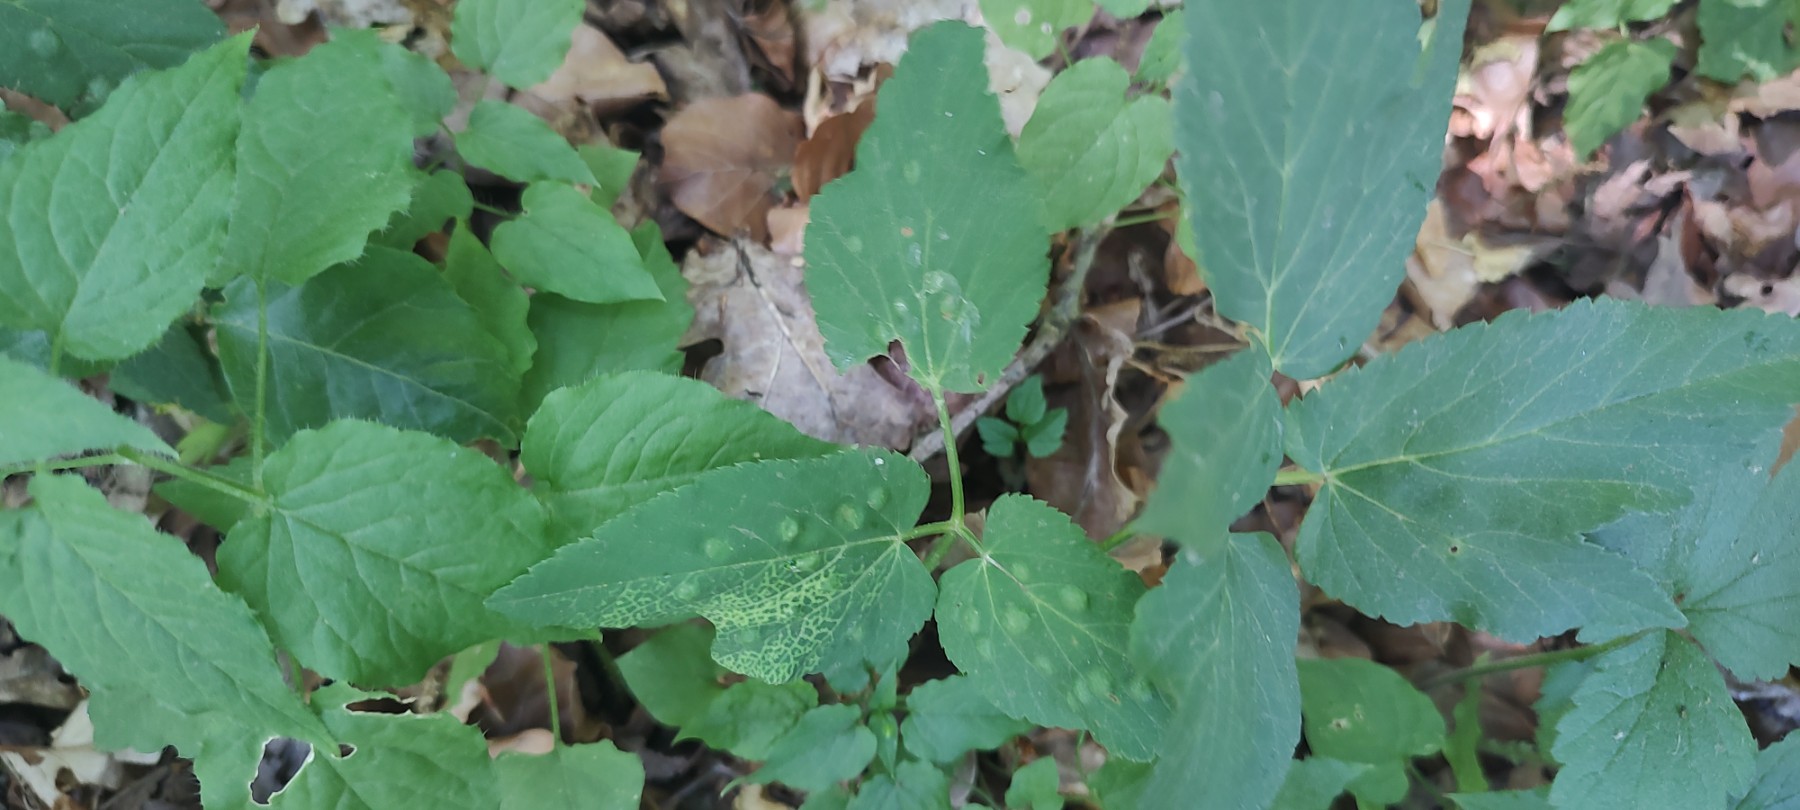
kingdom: Fungi
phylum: Ascomycota
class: Taphrinomycetes
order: Taphrinales
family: Taphrinaceae
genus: Protomyces
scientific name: Protomyces macrosporus
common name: skvalderkål-vablesæk
